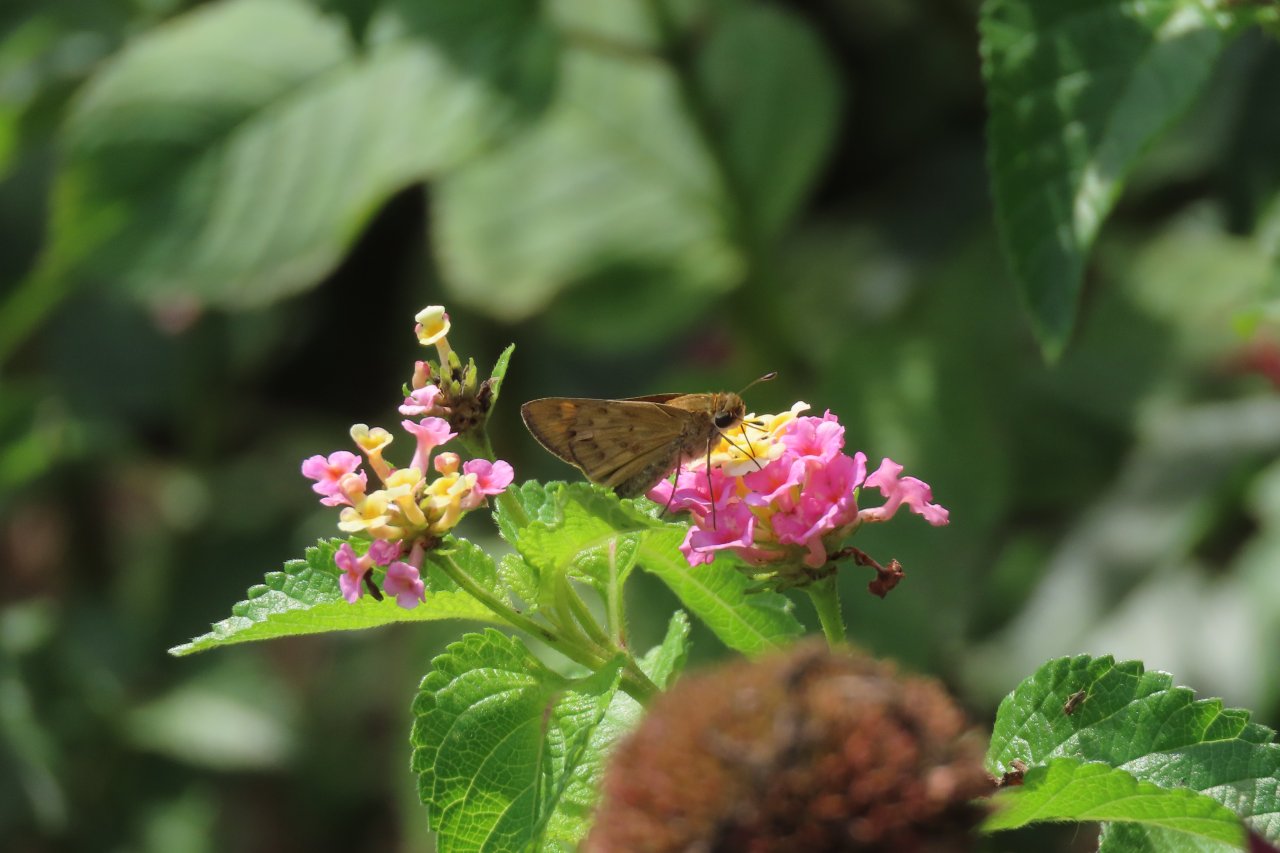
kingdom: Animalia
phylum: Arthropoda
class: Insecta
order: Lepidoptera
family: Hesperiidae
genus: Hylephila
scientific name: Hylephila phyleus
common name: Fiery Skipper
